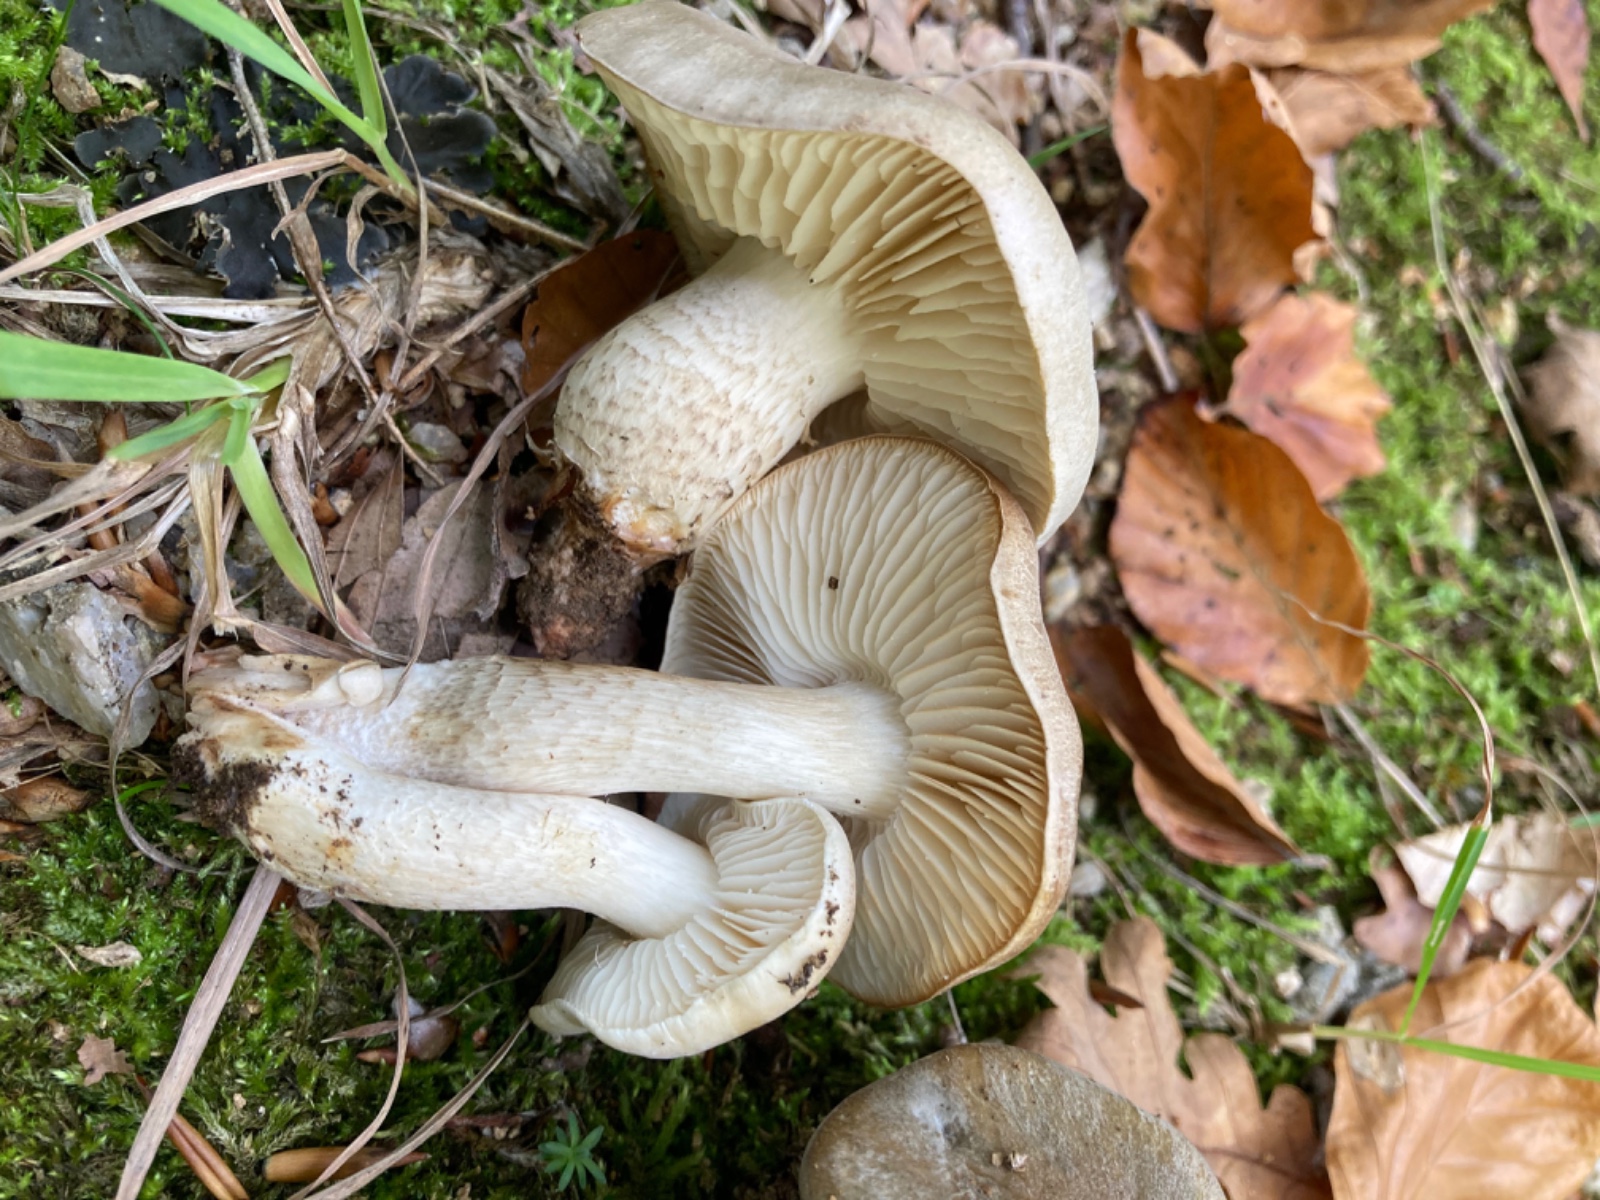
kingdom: Fungi
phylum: Basidiomycota
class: Agaricomycetes
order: Agaricales
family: Tricholomataceae
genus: Tricholoma
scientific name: Tricholoma saponaceum
